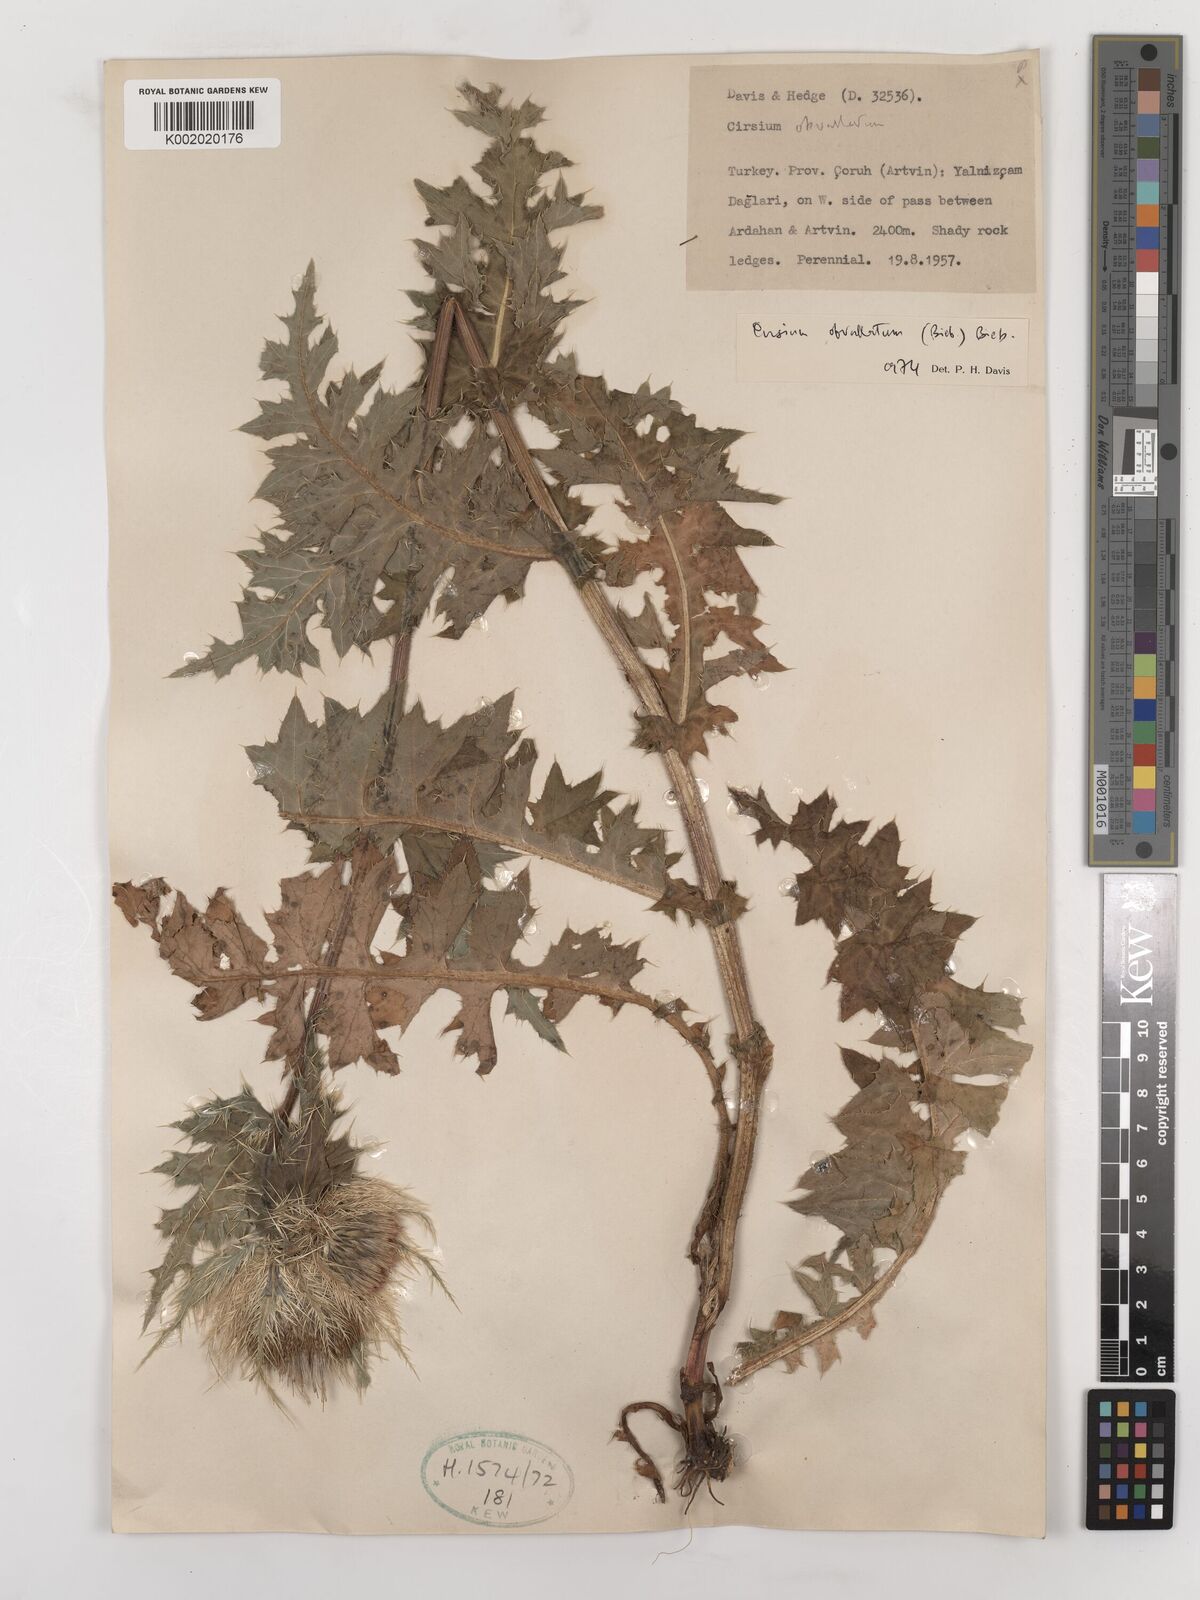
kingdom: Plantae
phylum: Tracheophyta
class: Magnoliopsida
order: Asterales
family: Asteraceae
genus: Cirsium
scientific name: Cirsium obvallatum
